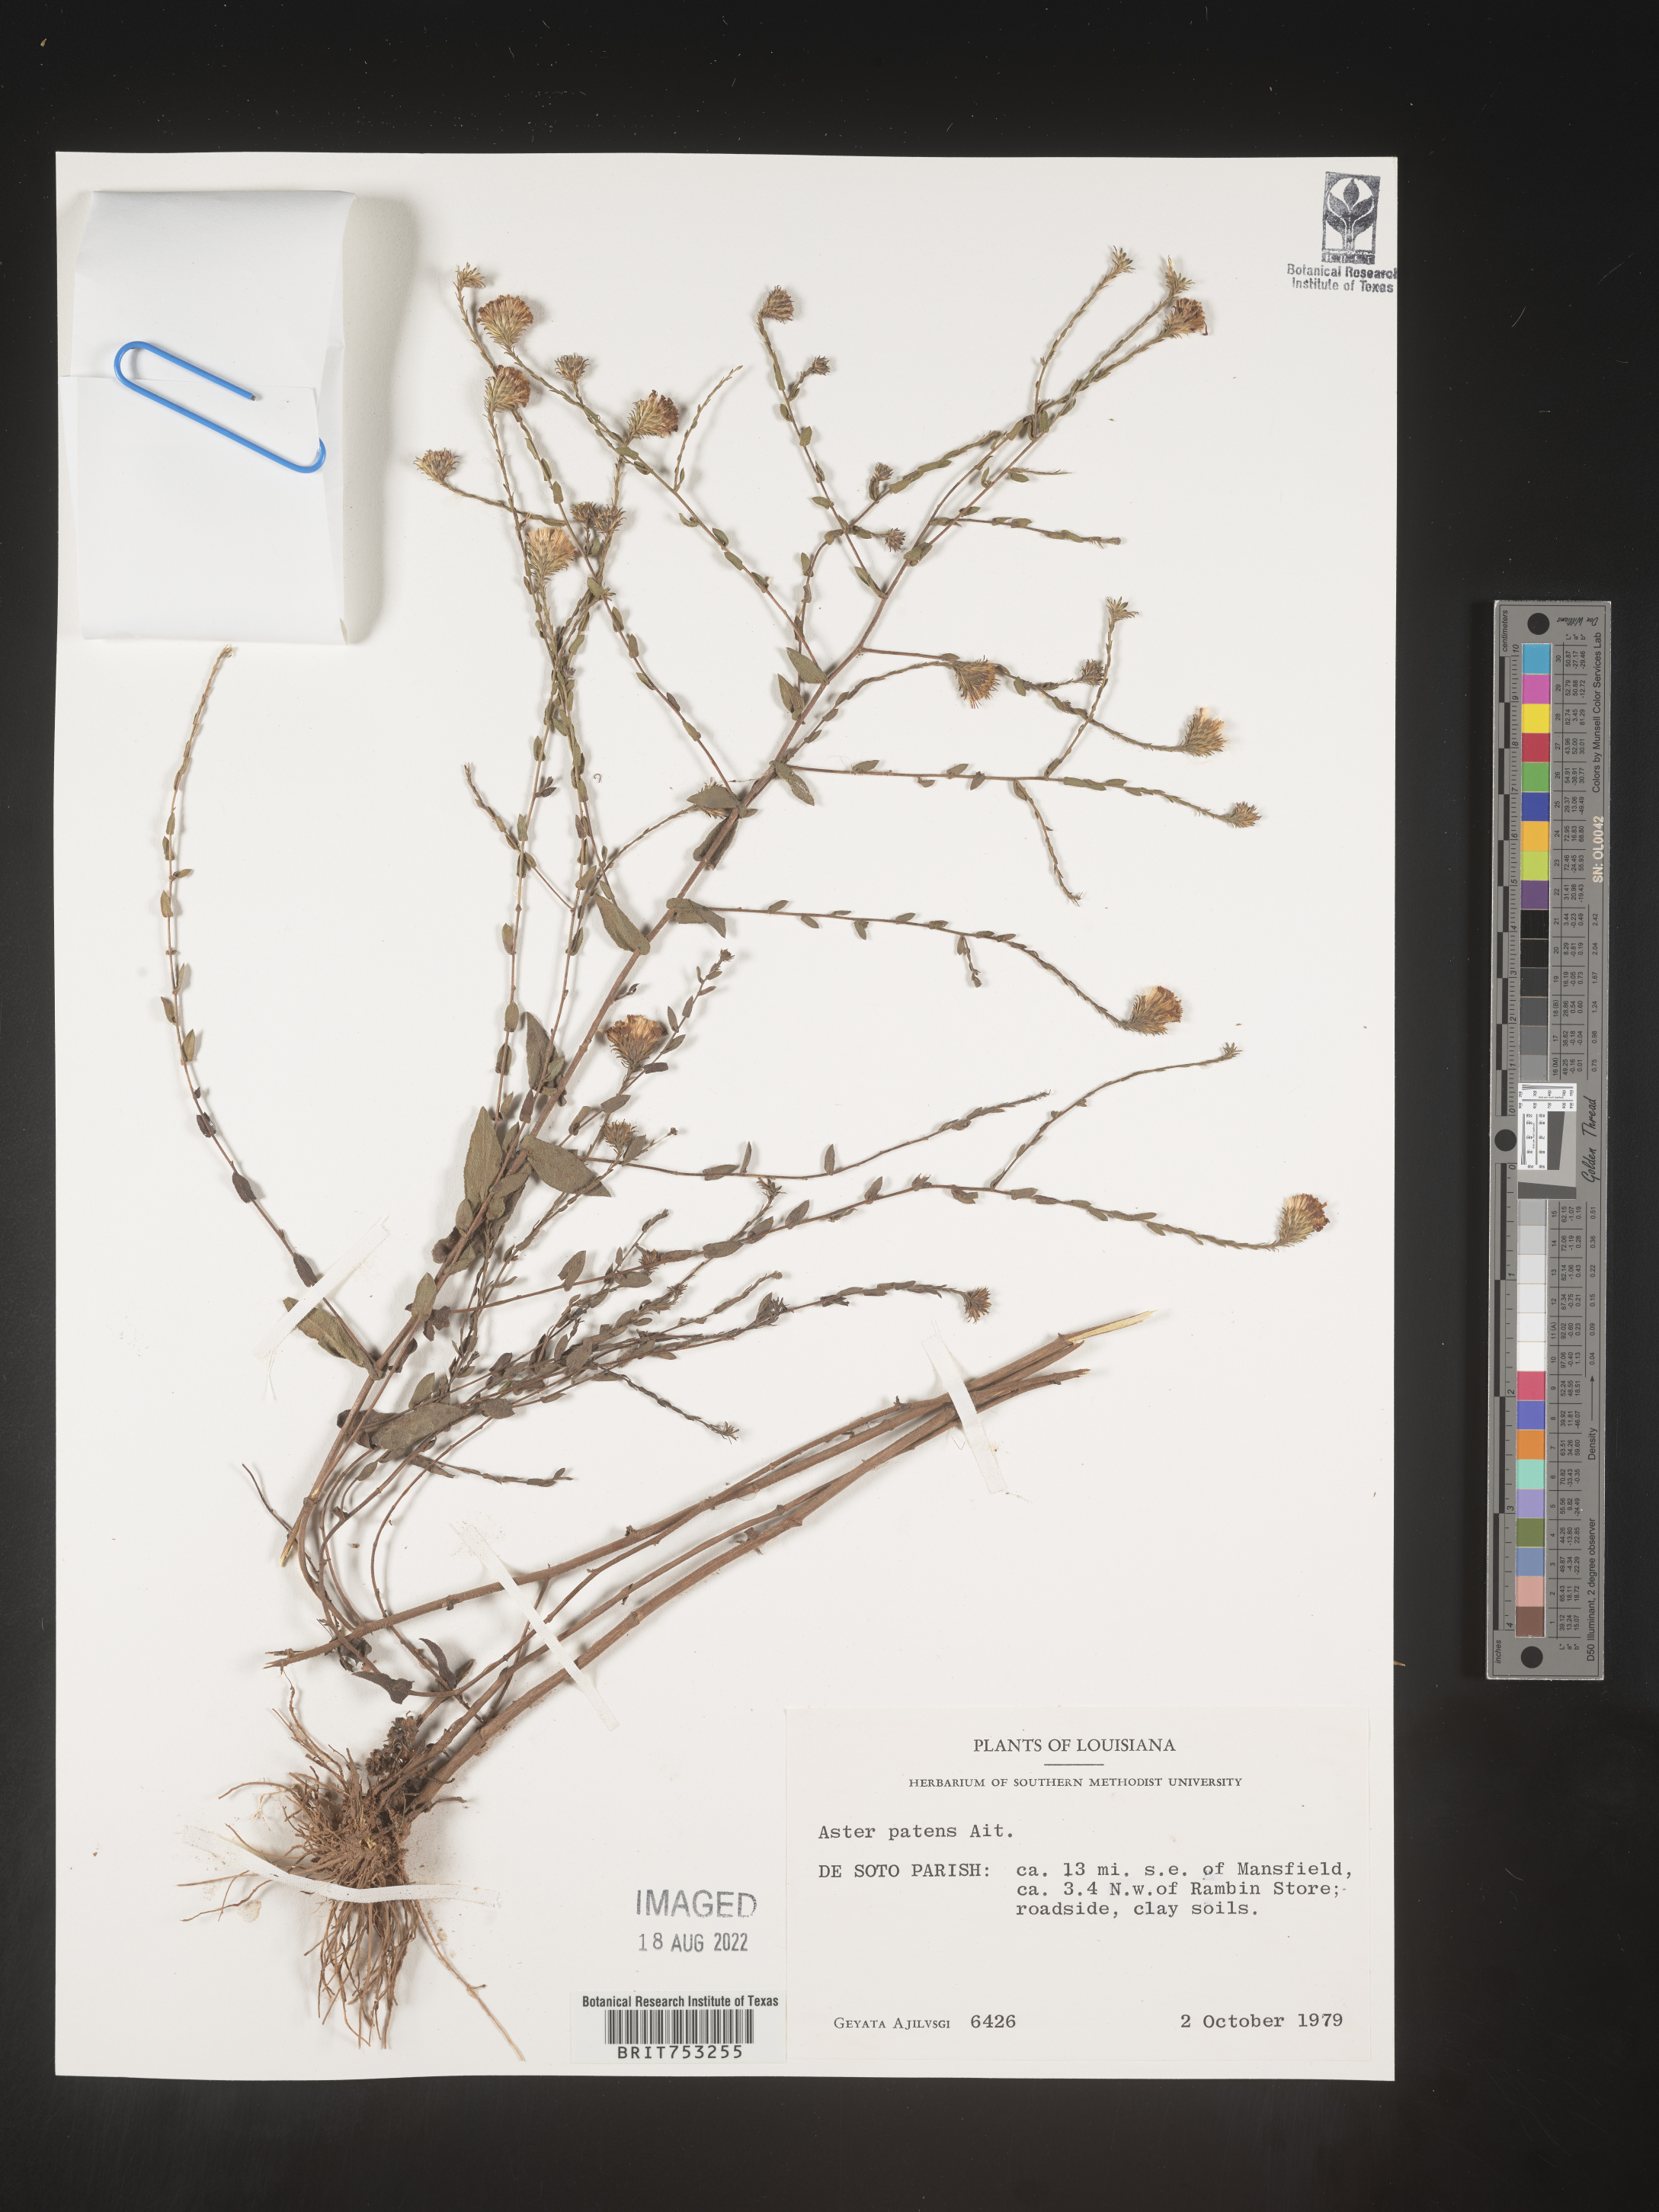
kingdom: Plantae
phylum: Tracheophyta
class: Magnoliopsida
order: Asterales
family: Asteraceae
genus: Symphyotrichum
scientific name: Symphyotrichum patens
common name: Late purple aster
